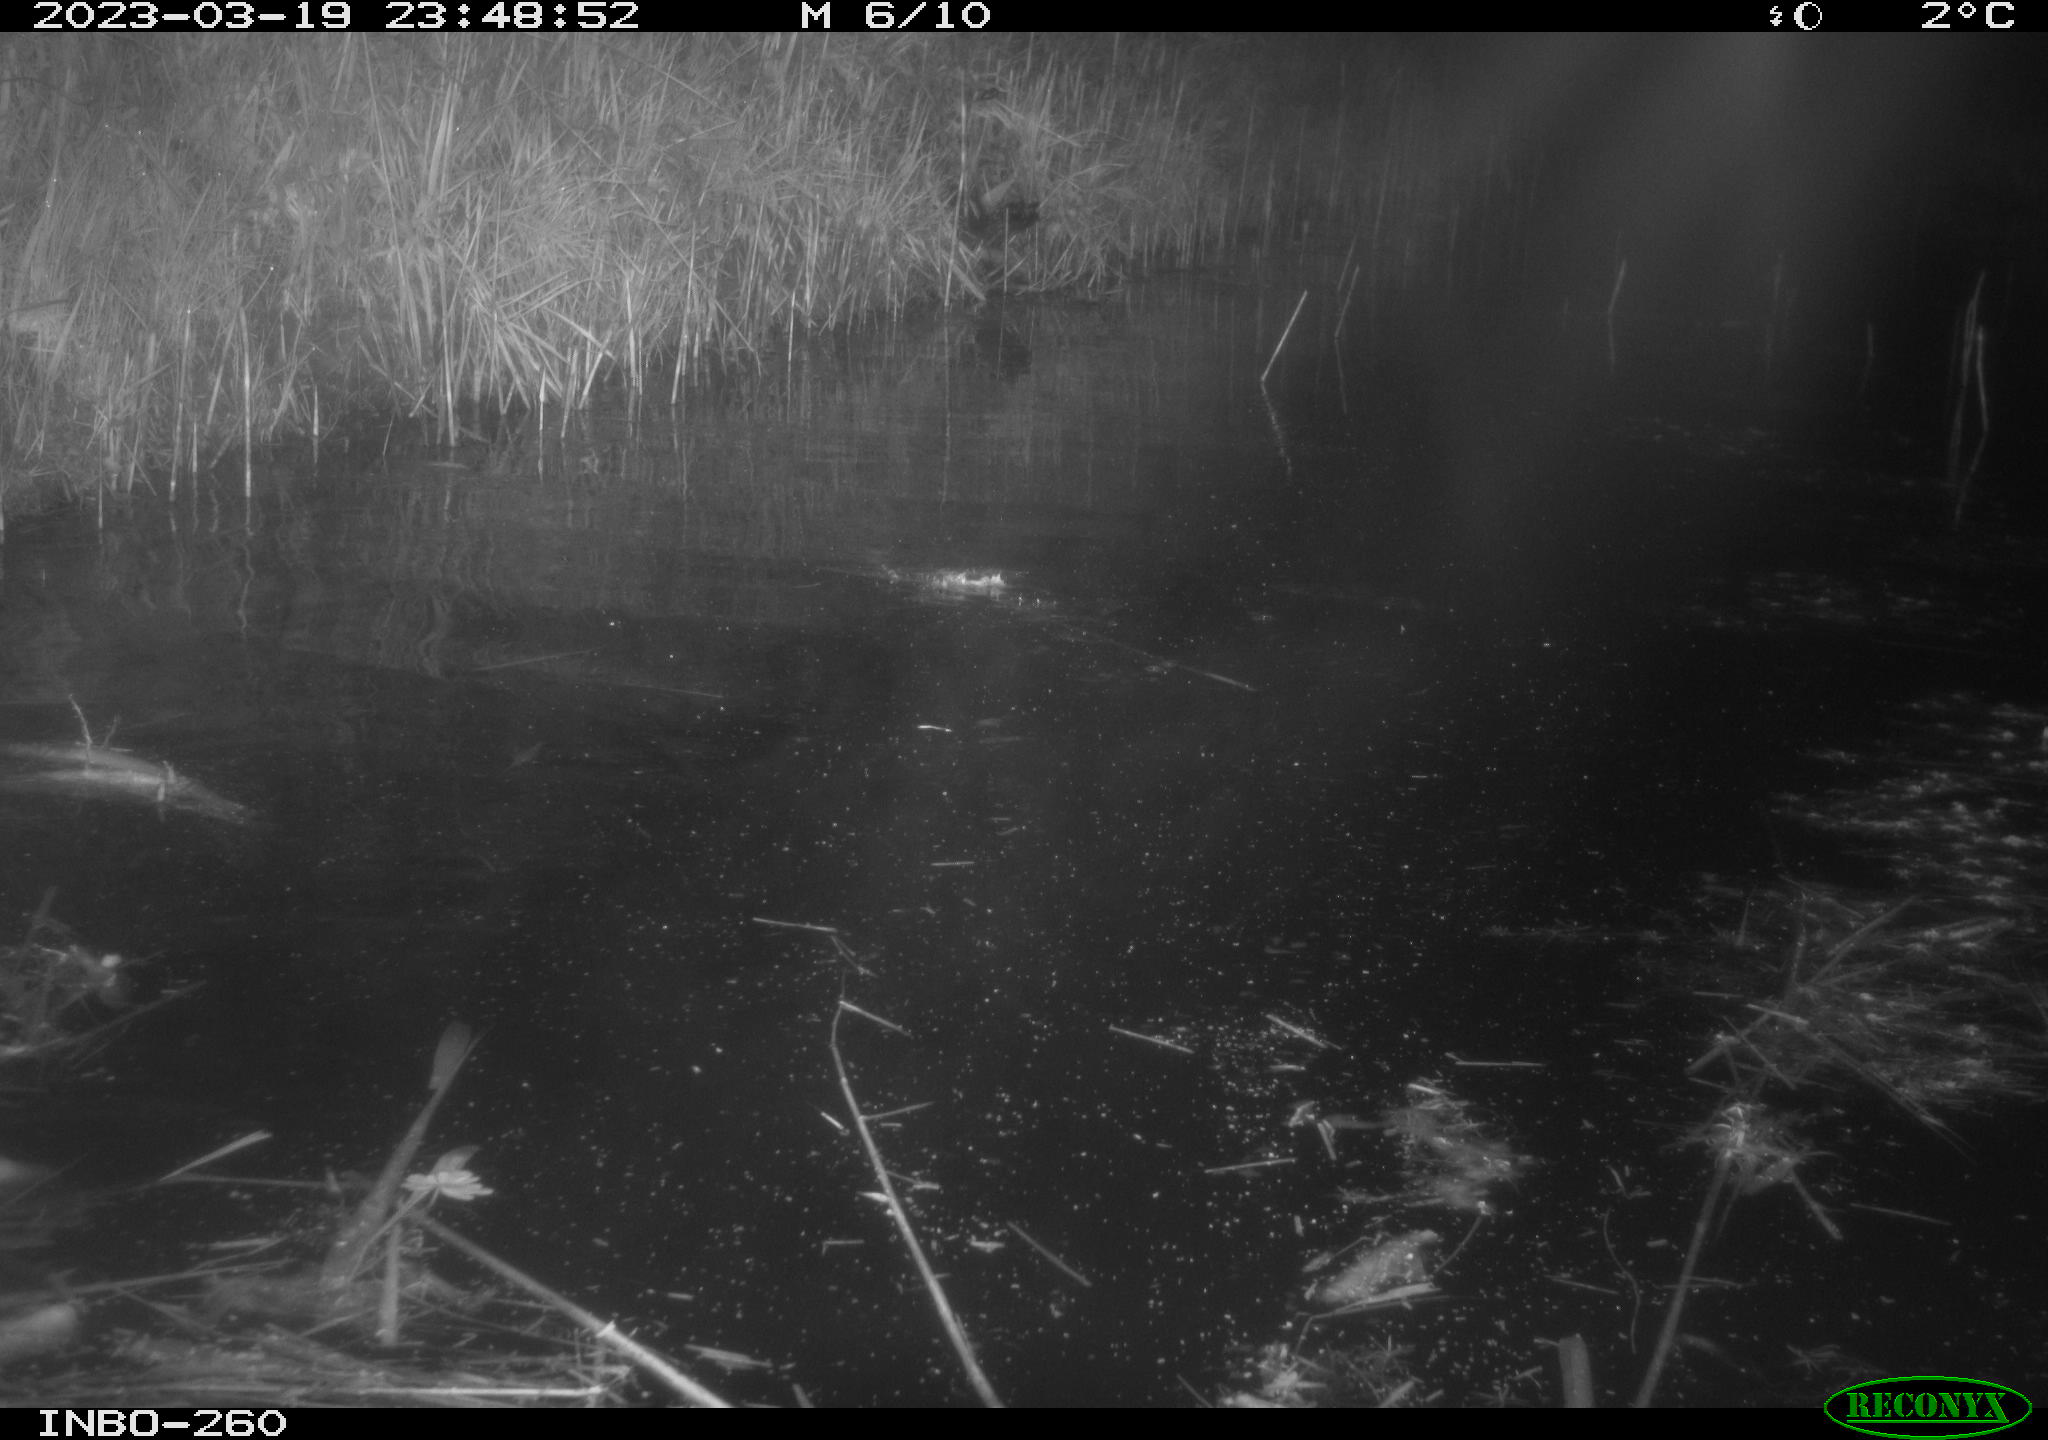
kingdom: Animalia
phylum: Chordata
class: Mammalia
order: Rodentia
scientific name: Rodentia
